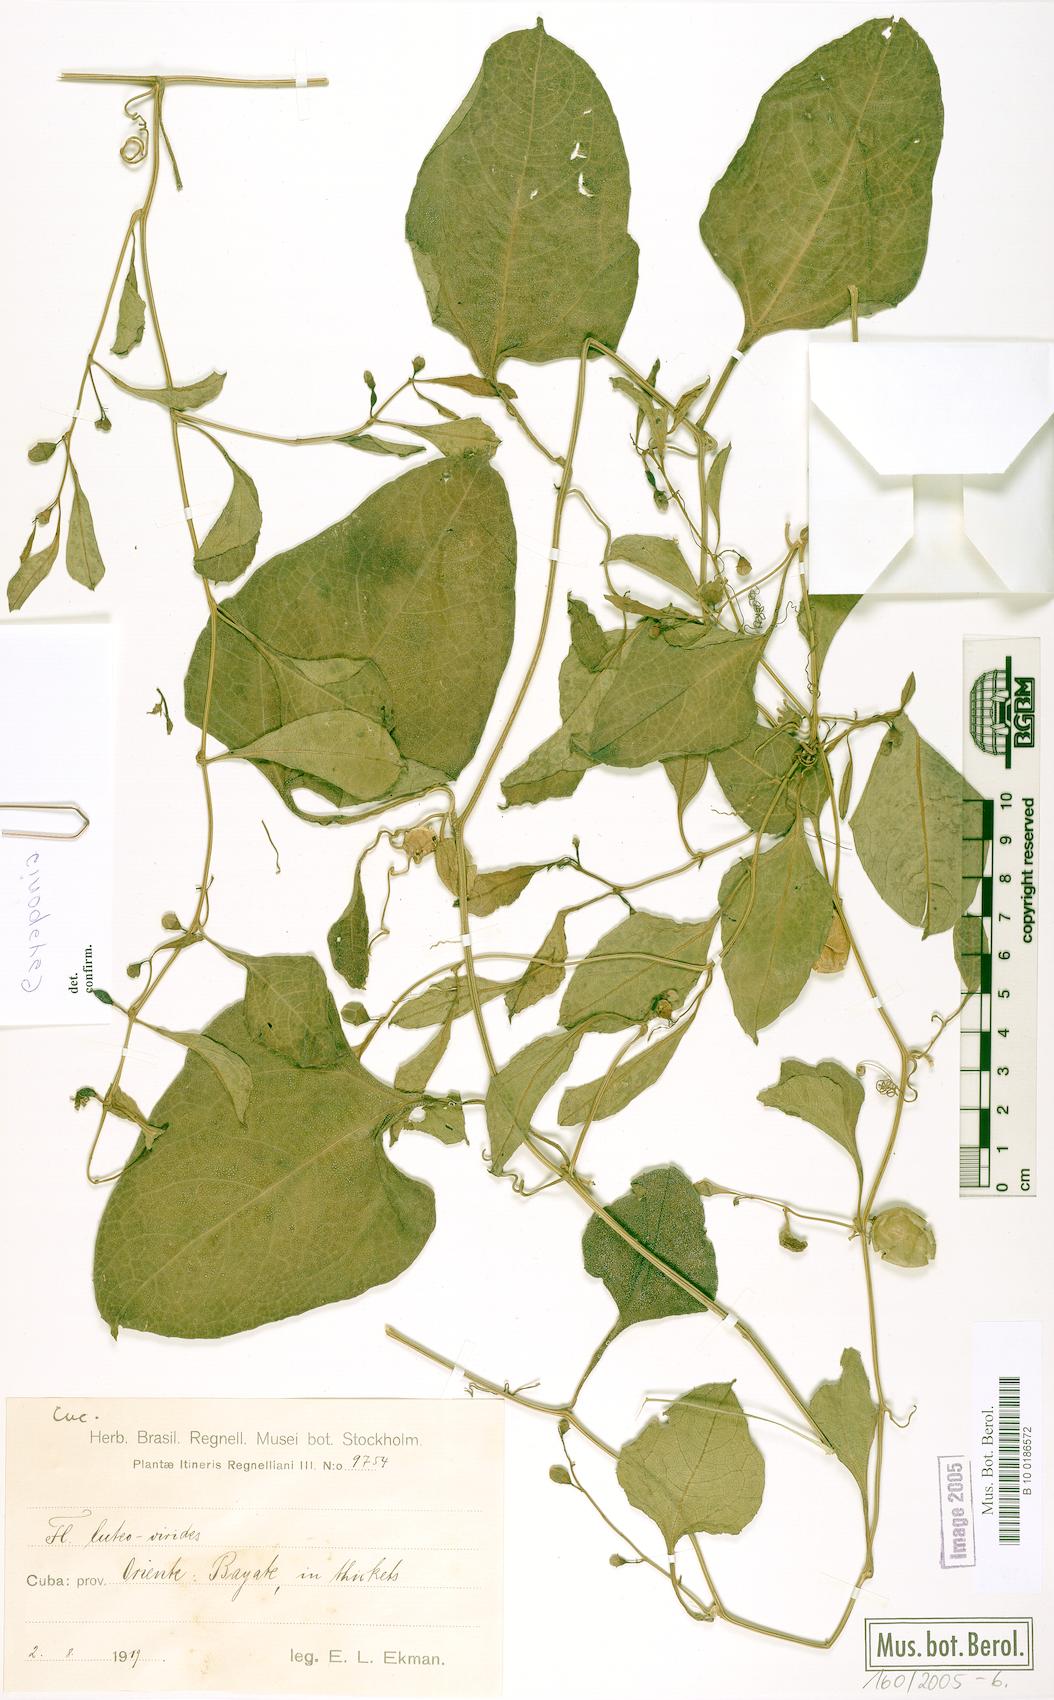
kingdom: Plantae
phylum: Tracheophyta
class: Magnoliopsida
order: Cucurbitales
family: Cucurbitaceae
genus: Cayaponia
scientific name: Cayaponia racemosa
